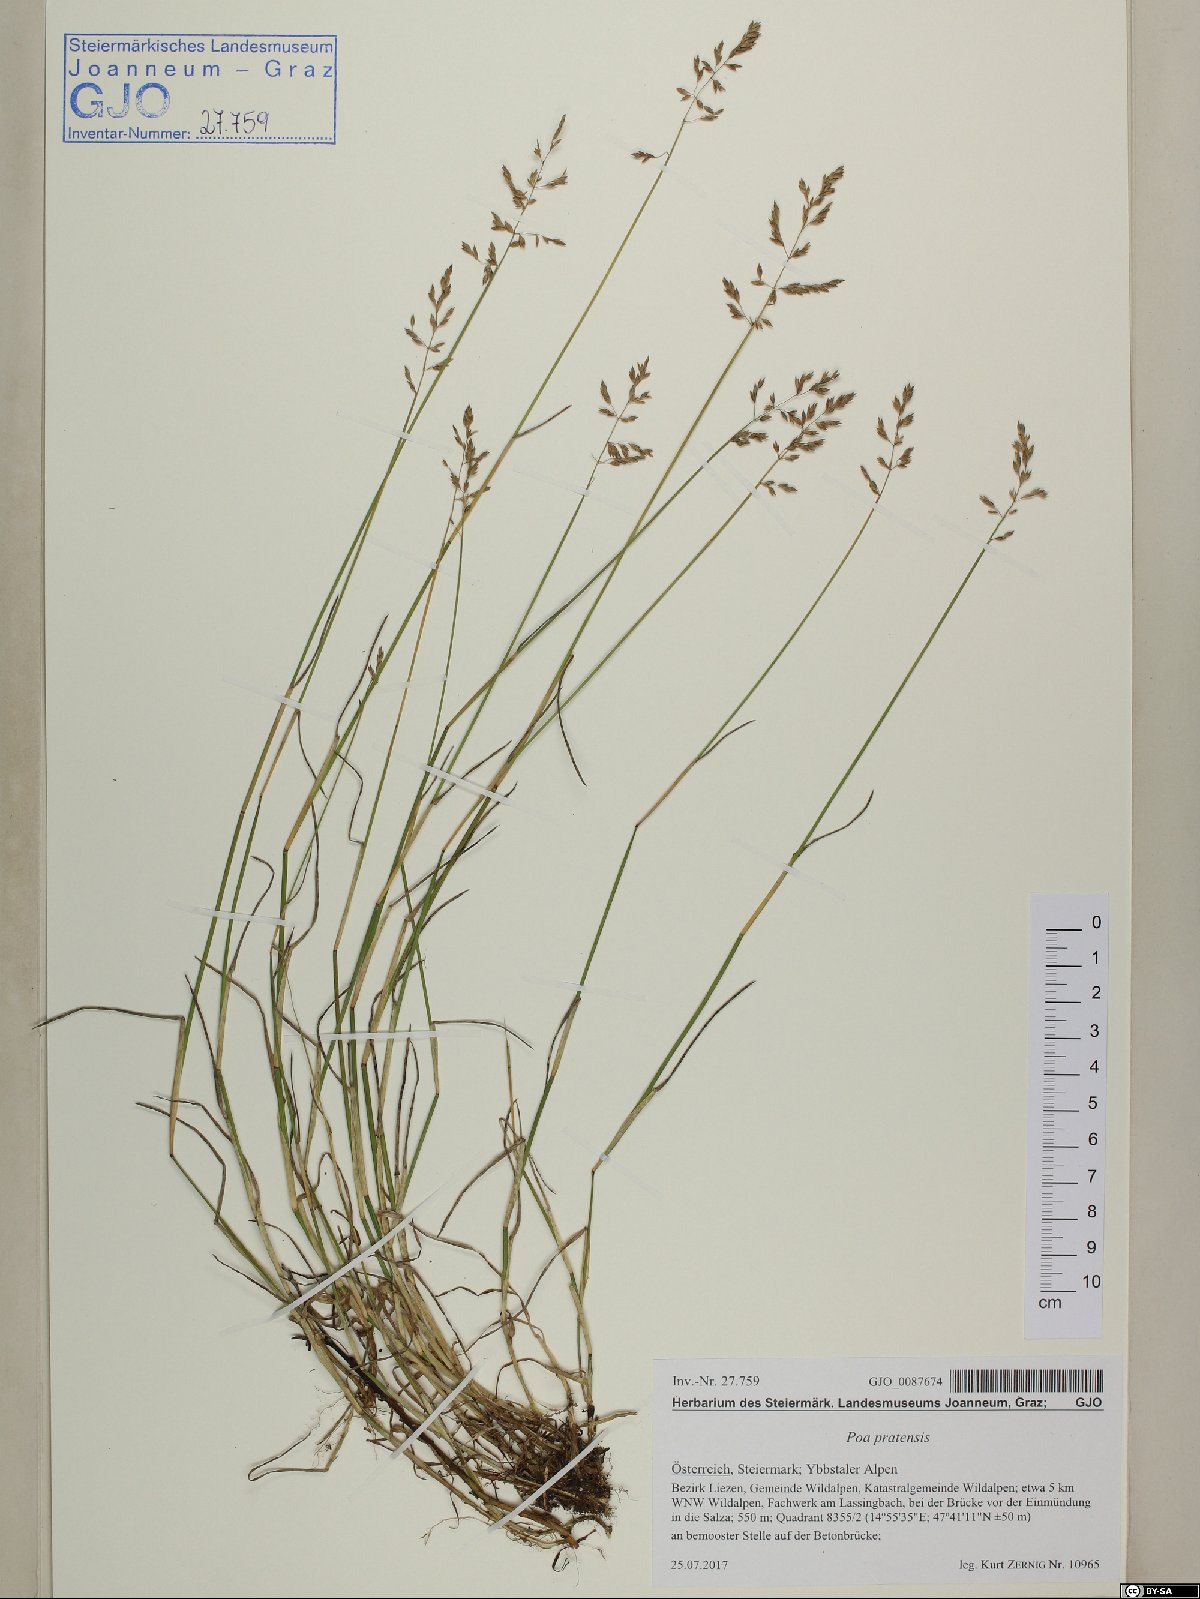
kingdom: Plantae
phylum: Tracheophyta
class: Liliopsida
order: Poales
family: Poaceae
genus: Poa
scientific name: Poa compressa
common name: Canada bluegrass
